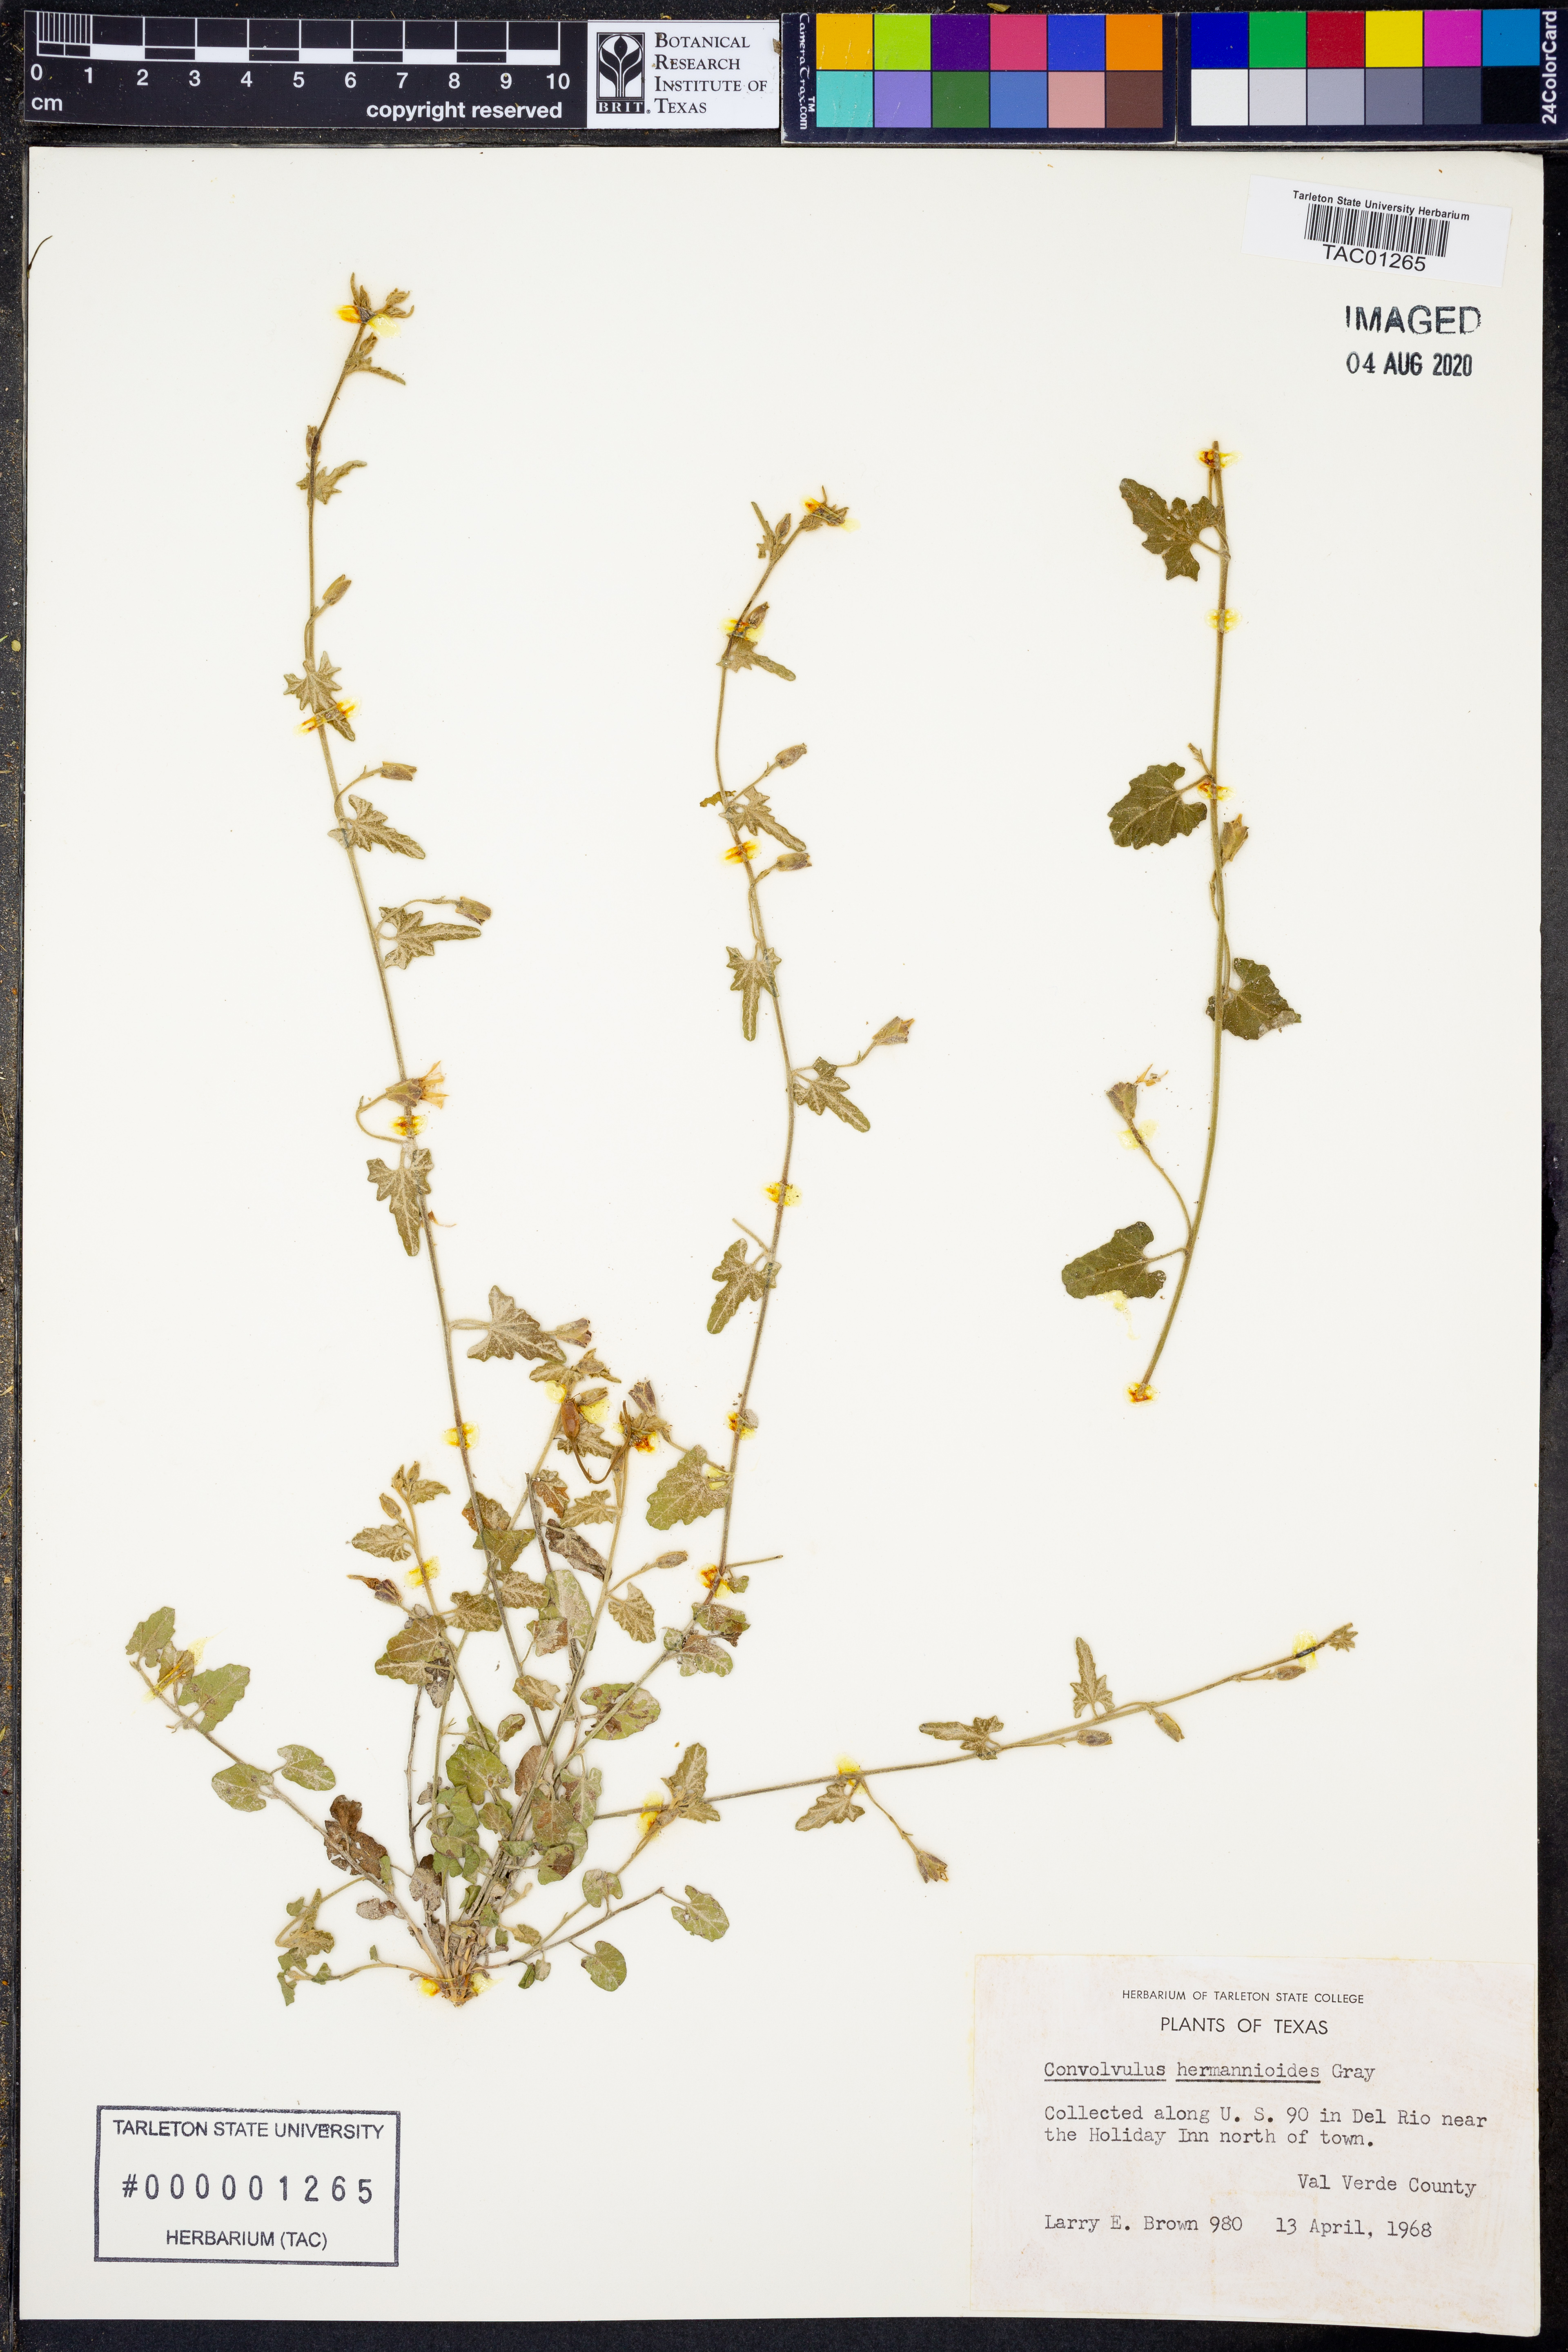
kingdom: Plantae
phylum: Tracheophyta
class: Magnoliopsida
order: Solanales
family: Convolvulaceae
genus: Convolvulus
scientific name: Convolvulus equitans
